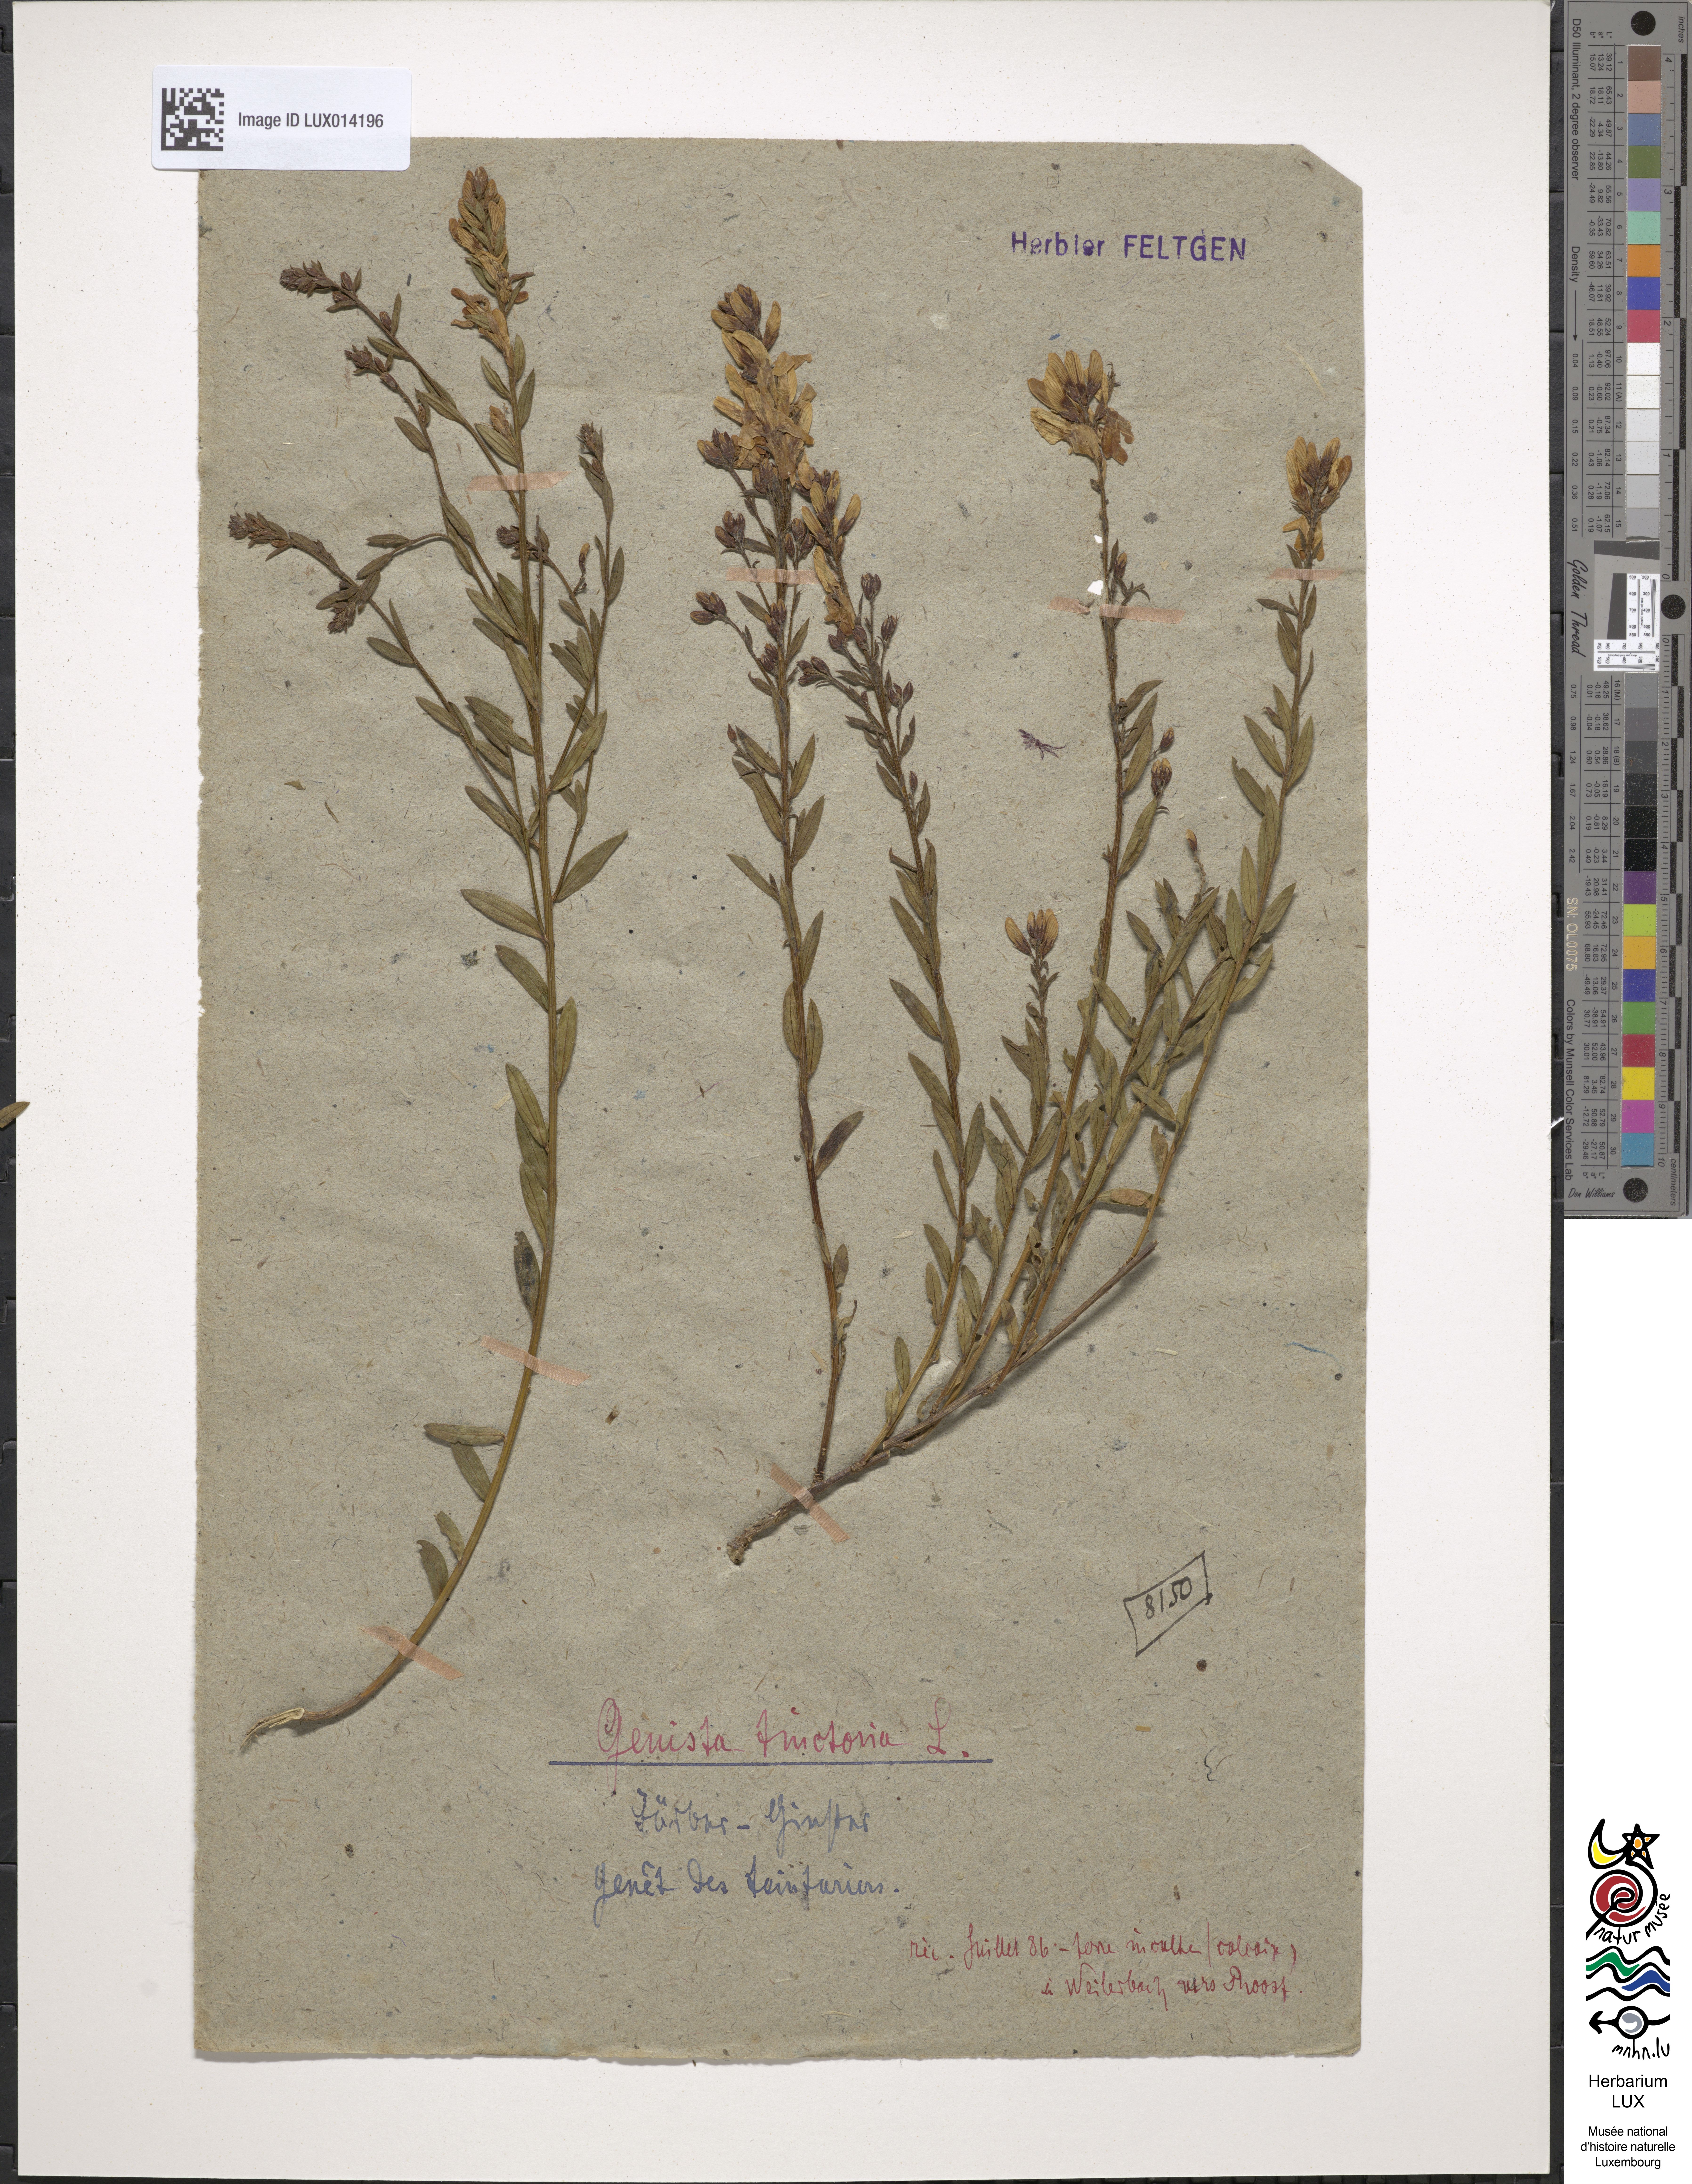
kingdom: Plantae
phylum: Tracheophyta
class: Magnoliopsida
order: Fabales
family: Fabaceae
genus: Genista
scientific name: Genista tinctoria
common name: Dyer's greenweed
